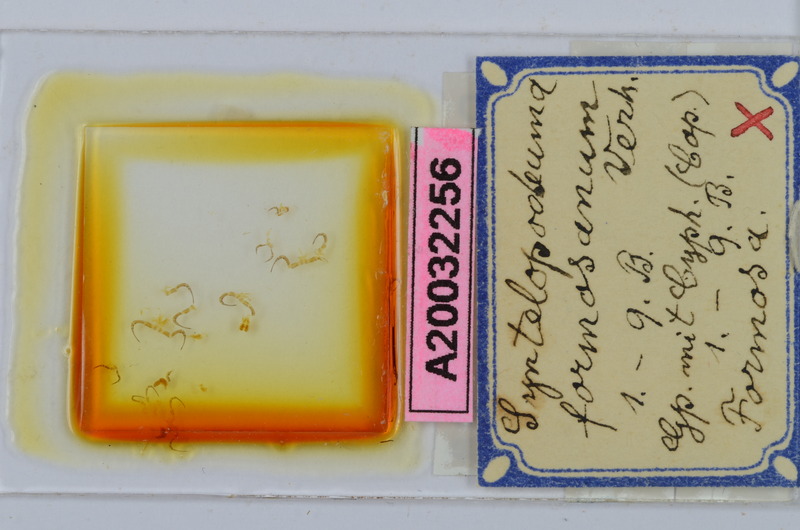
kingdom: Animalia
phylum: Arthropoda
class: Diplopoda
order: Chordeumatida
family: Diplomaragnidae
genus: Diplomaragna
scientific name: Diplomaragna formosana
